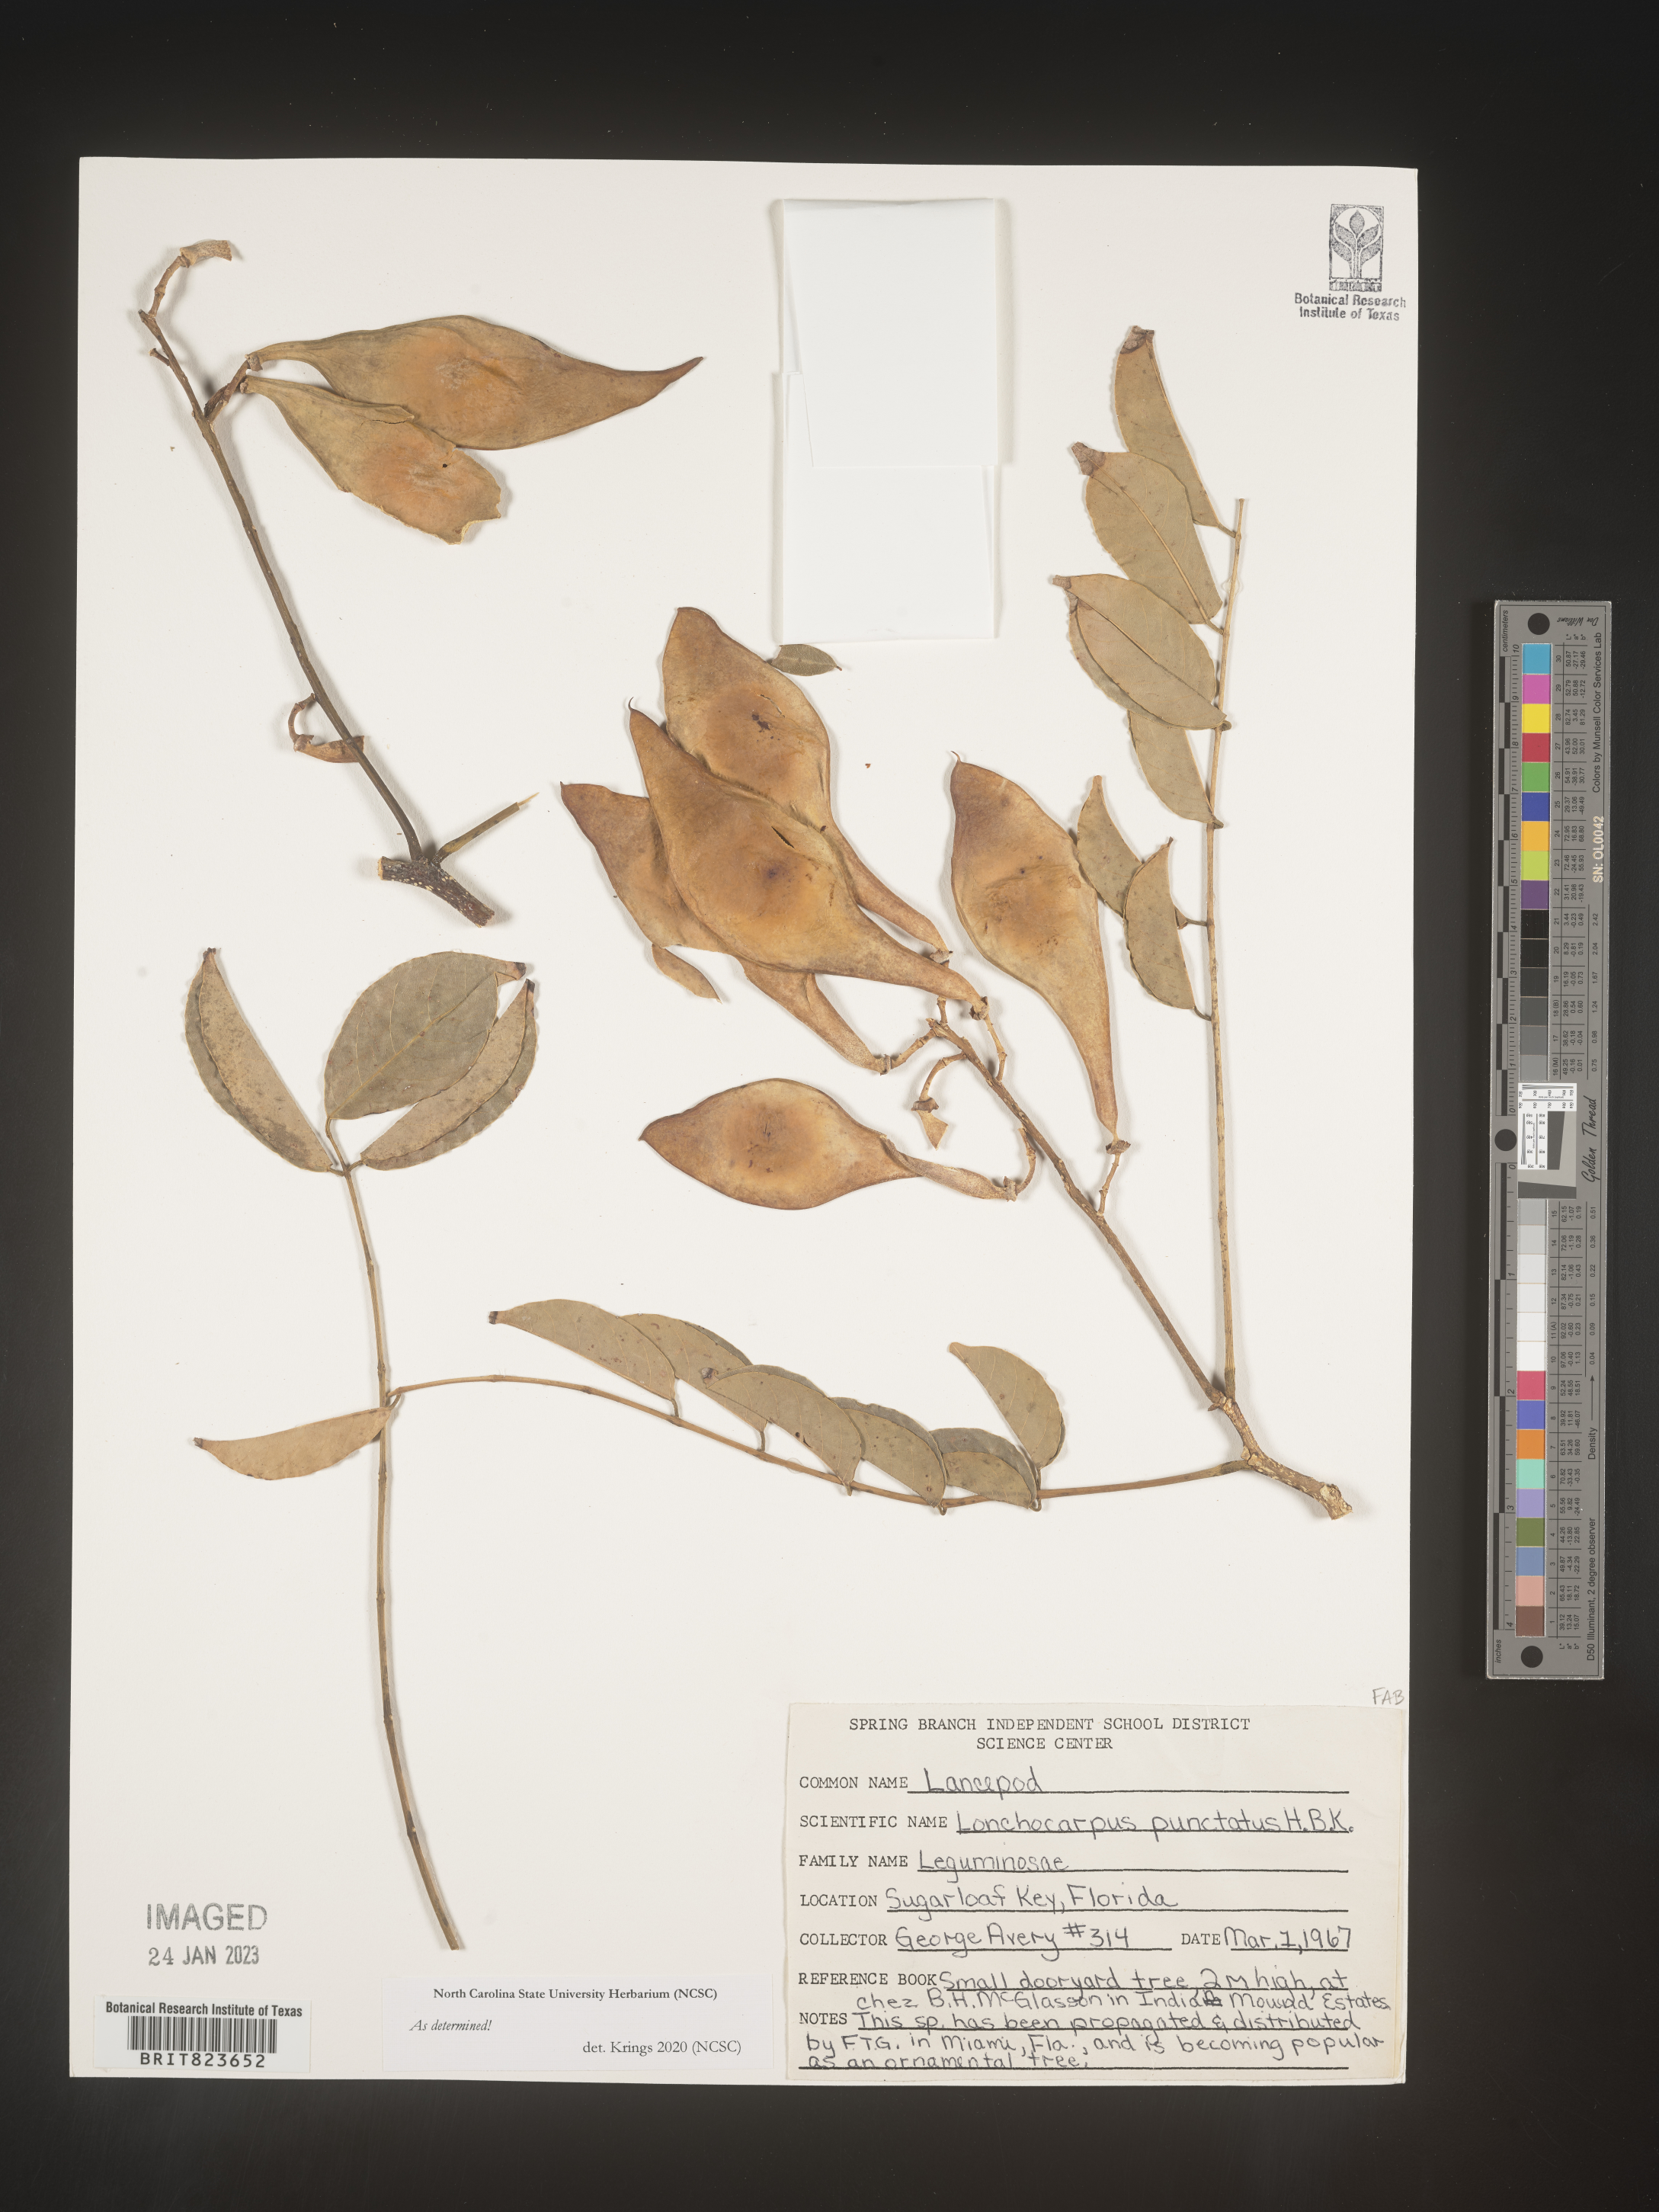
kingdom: Plantae
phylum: Tracheophyta
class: Magnoliopsida
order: Fabales
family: Fabaceae
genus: Lonchocarpus
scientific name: Lonchocarpus punctatus
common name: Dotted lancepod
